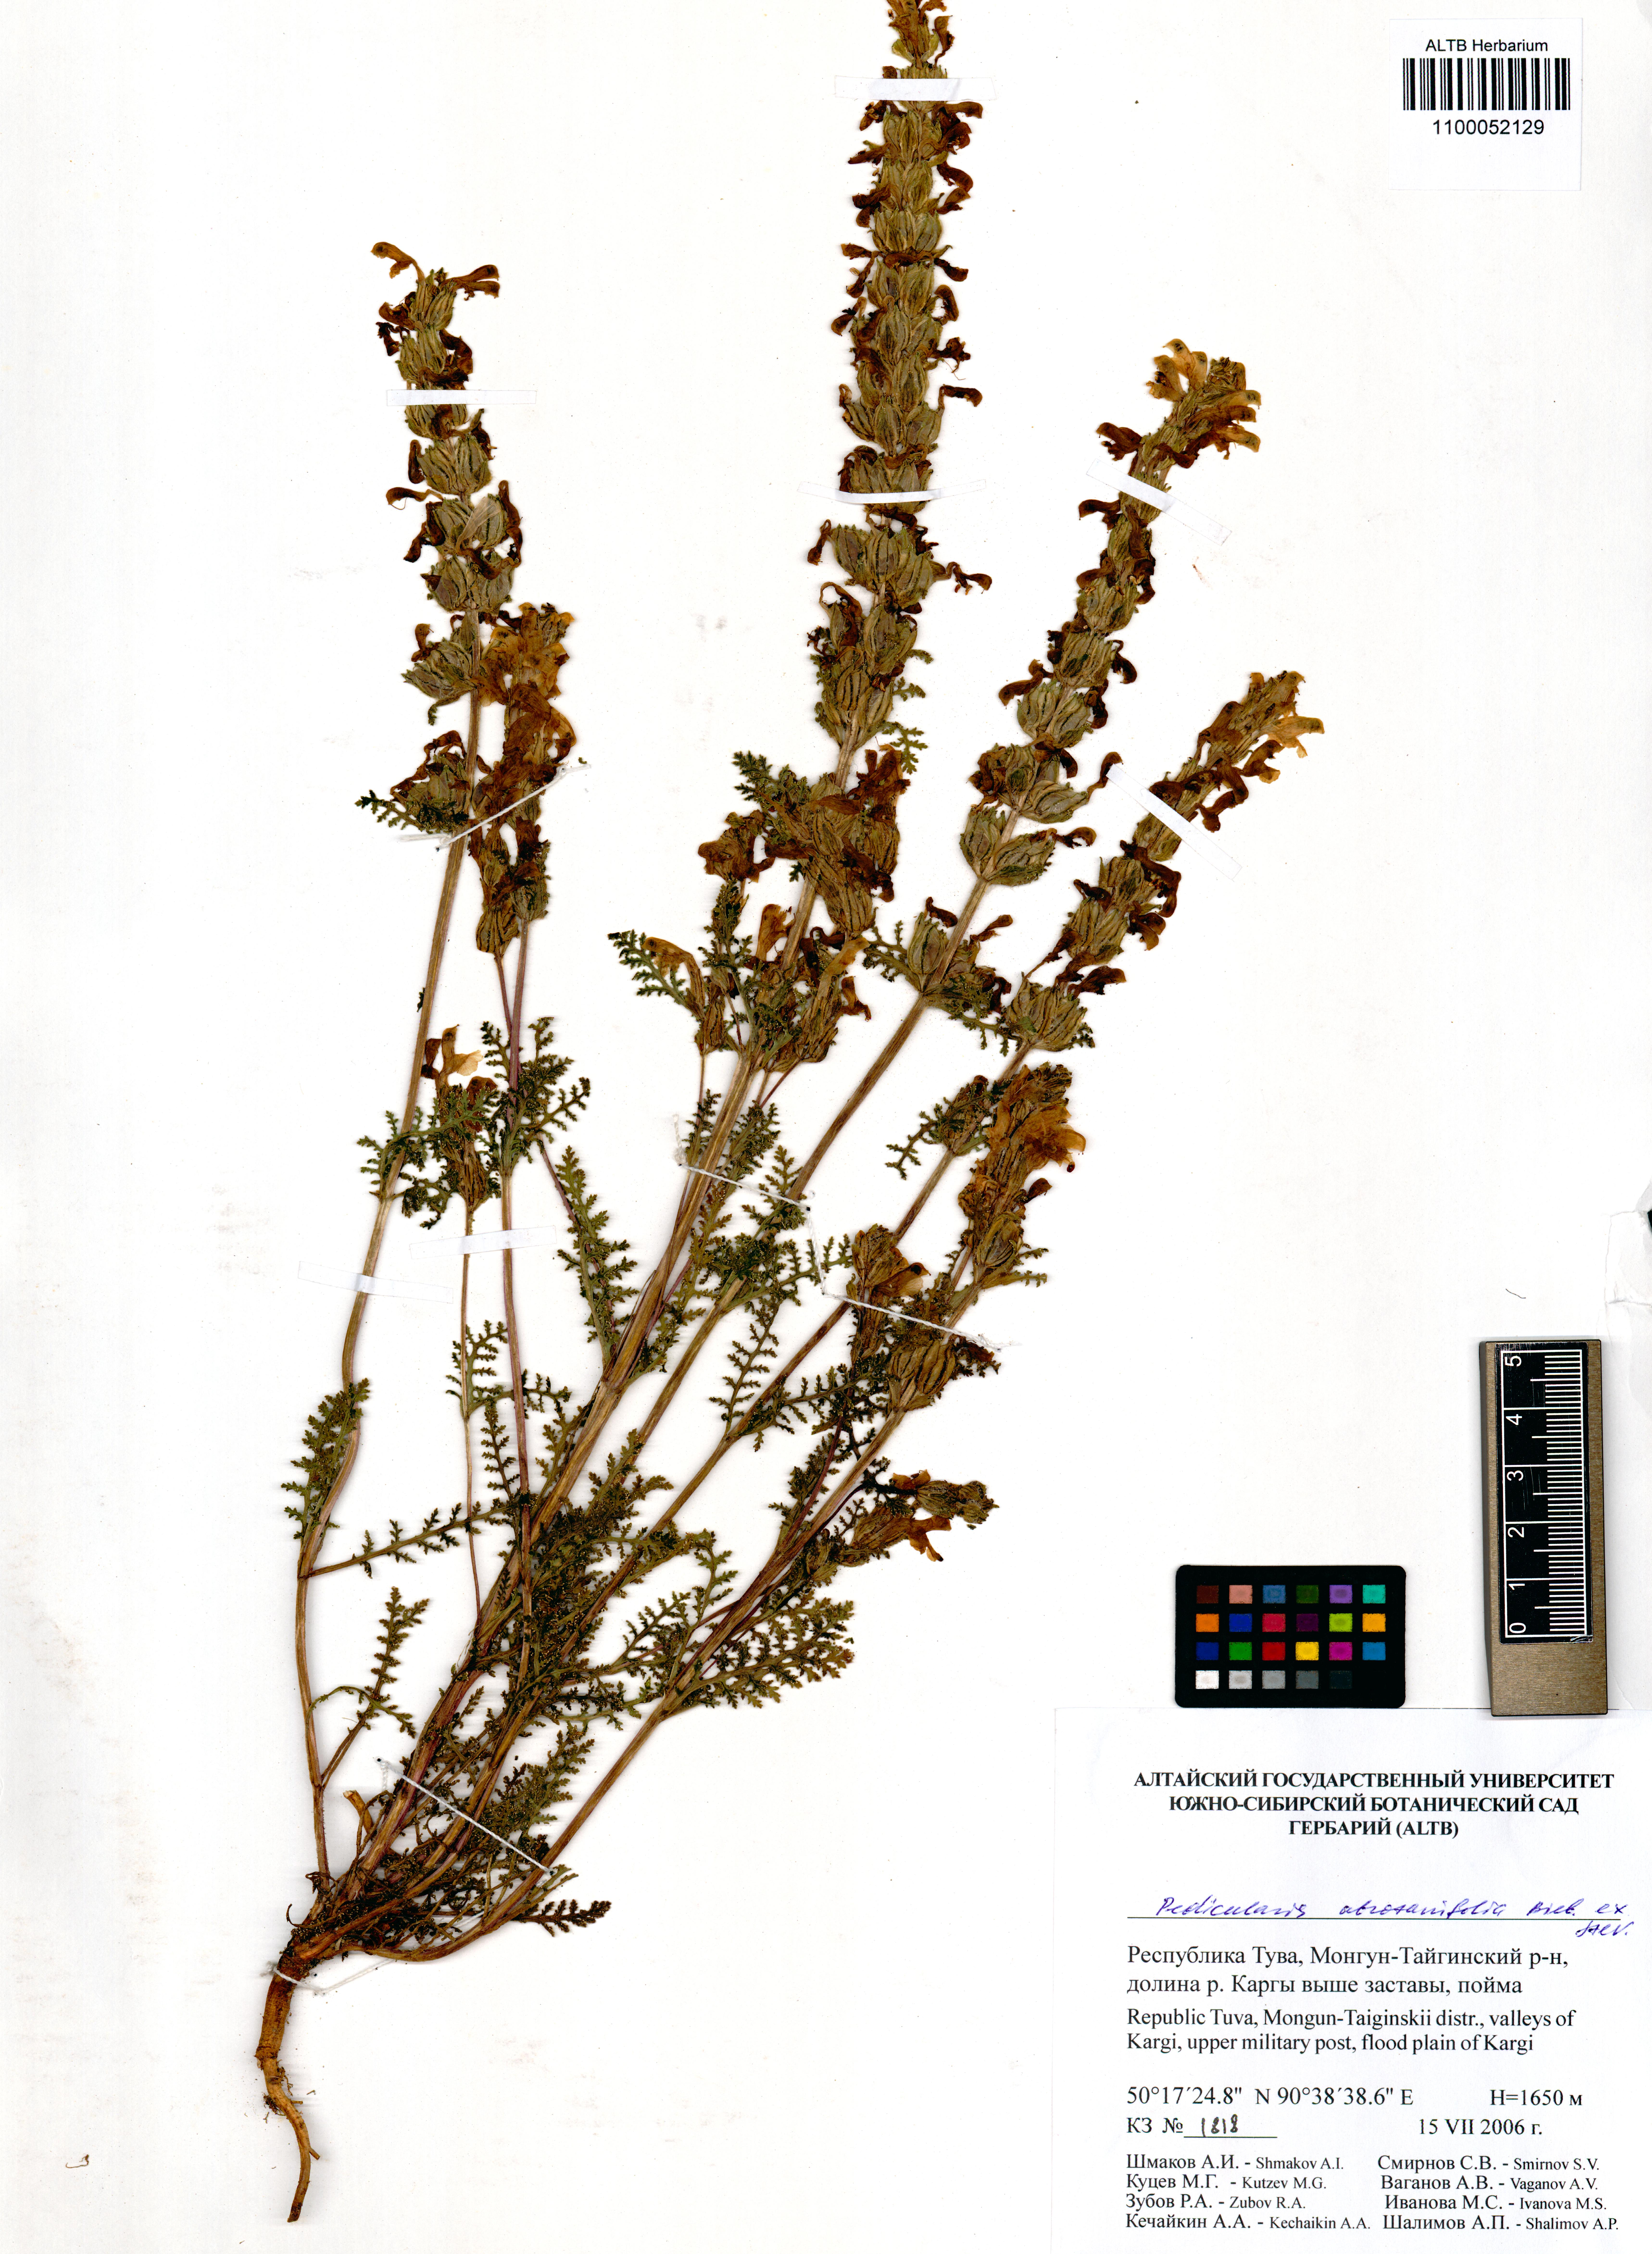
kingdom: Plantae
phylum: Tracheophyta
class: Magnoliopsida
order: Lamiales
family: Orobanchaceae
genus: Pedicularis
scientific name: Pedicularis abrotanifolia
